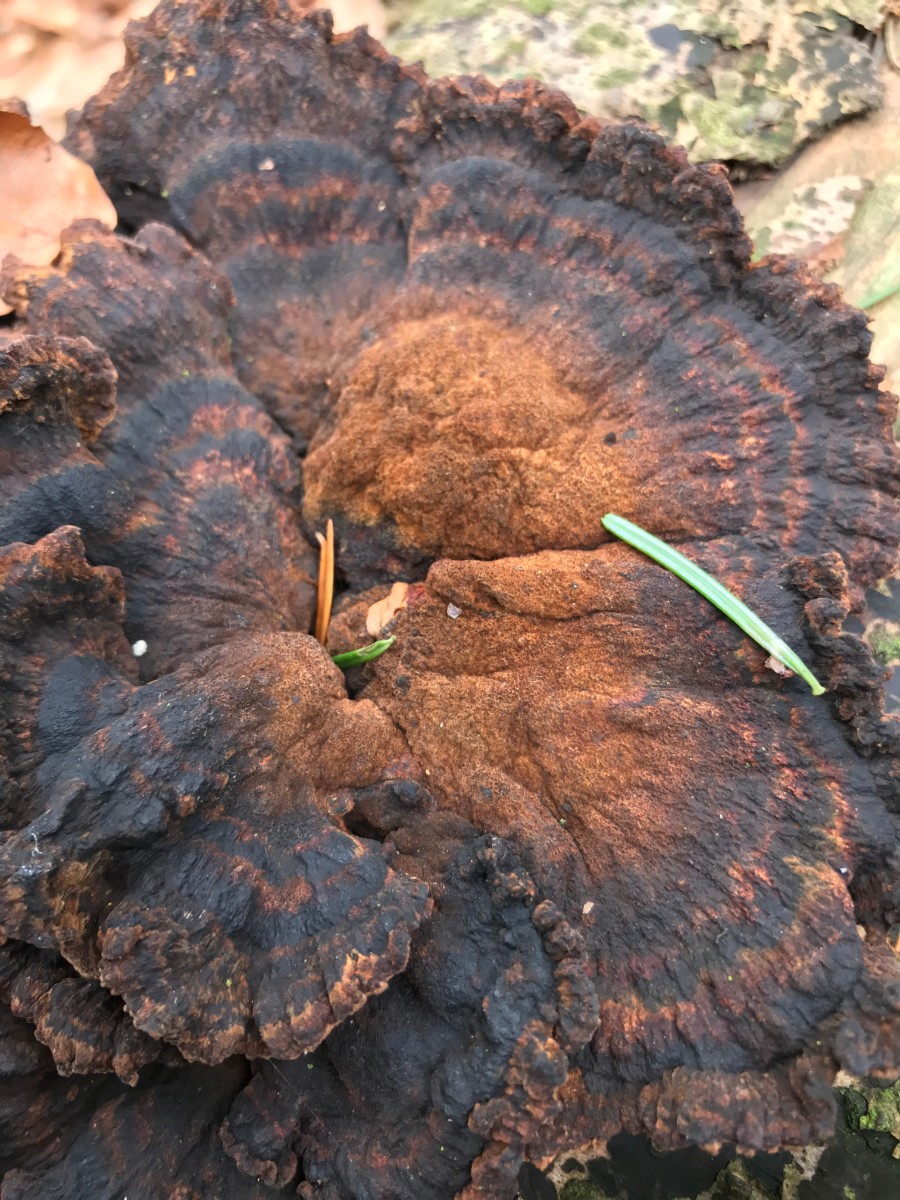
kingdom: Fungi
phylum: Basidiomycota
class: Agaricomycetes
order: Polyporales
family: Ischnodermataceae
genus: Ischnoderma
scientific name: Ischnoderma benzoinum
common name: gran-tjæreporesvamp
